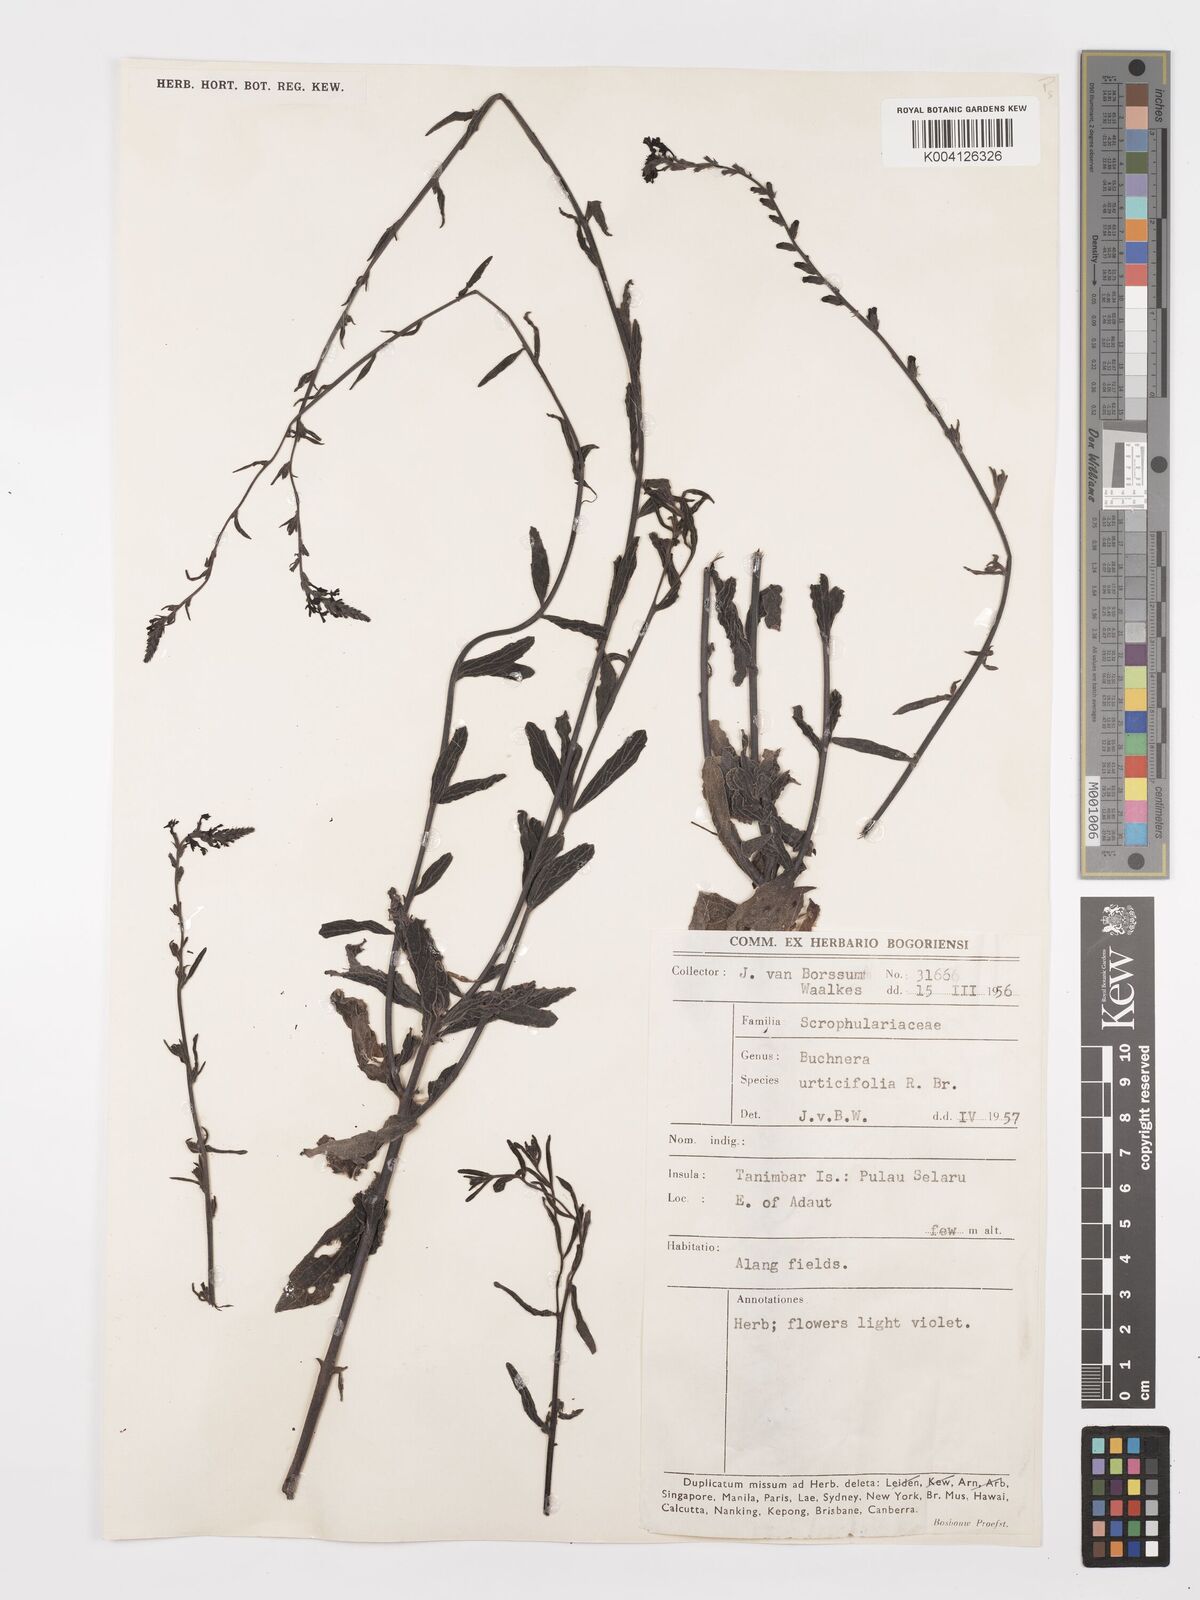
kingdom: Plantae
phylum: Tracheophyta
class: Magnoliopsida
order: Lamiales
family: Orobanchaceae
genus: Buchnera
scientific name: Buchnera urticifolia
